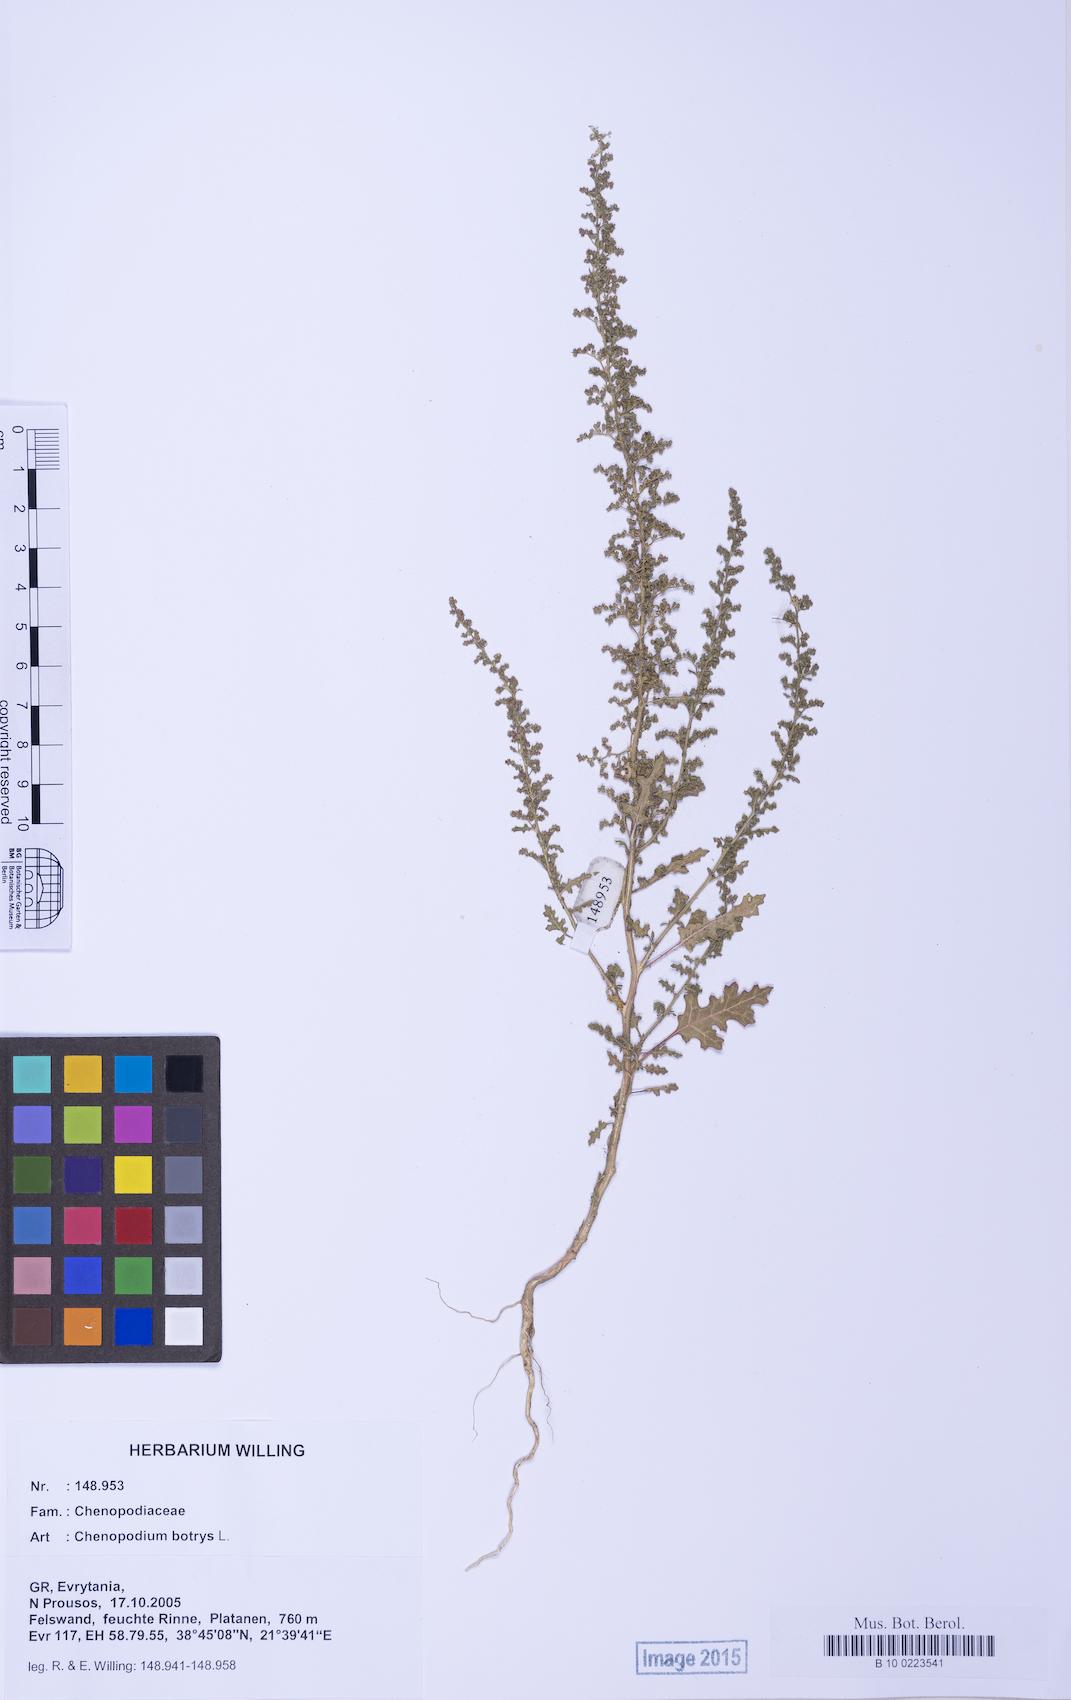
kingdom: Plantae
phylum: Tracheophyta
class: Magnoliopsida
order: Caryophyllales
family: Amaranthaceae
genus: Dysphania
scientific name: Dysphania botrys
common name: Feather-geranium
